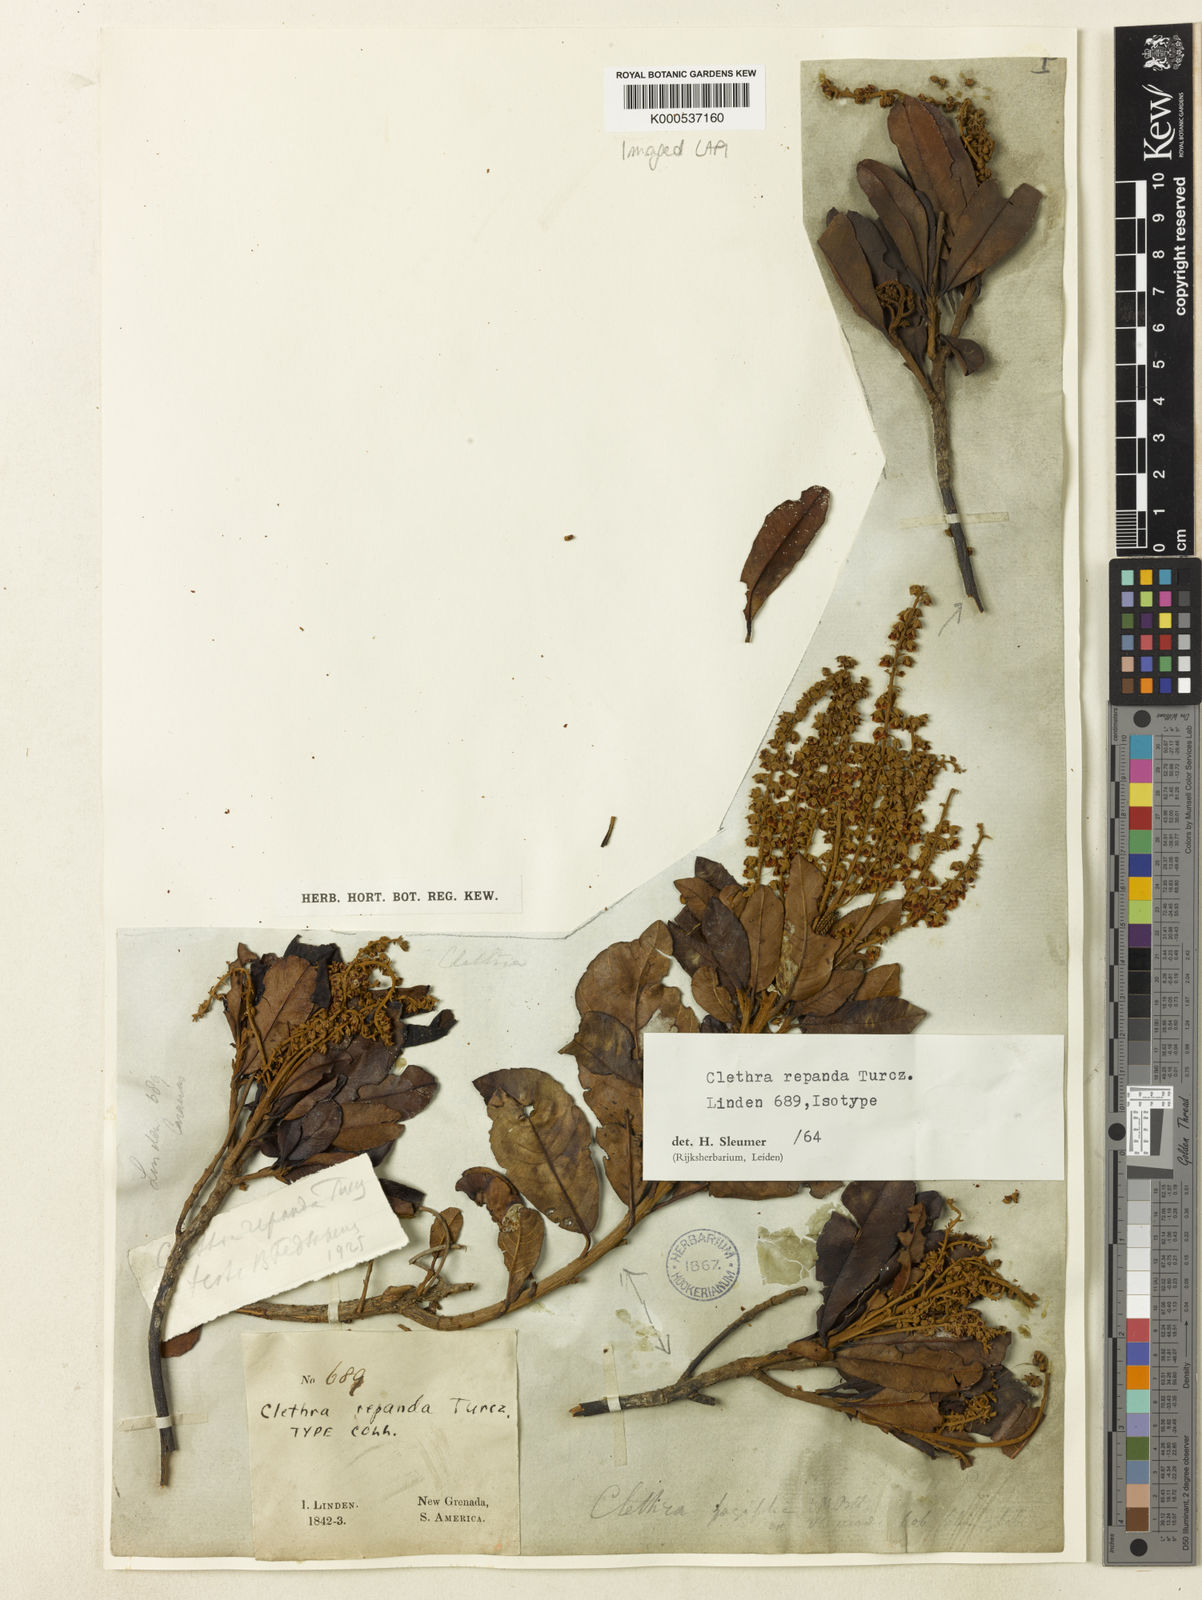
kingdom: Plantae
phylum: Tracheophyta
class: Magnoliopsida
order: Ericales
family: Clethraceae
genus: Clethra
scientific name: Clethra repanda
